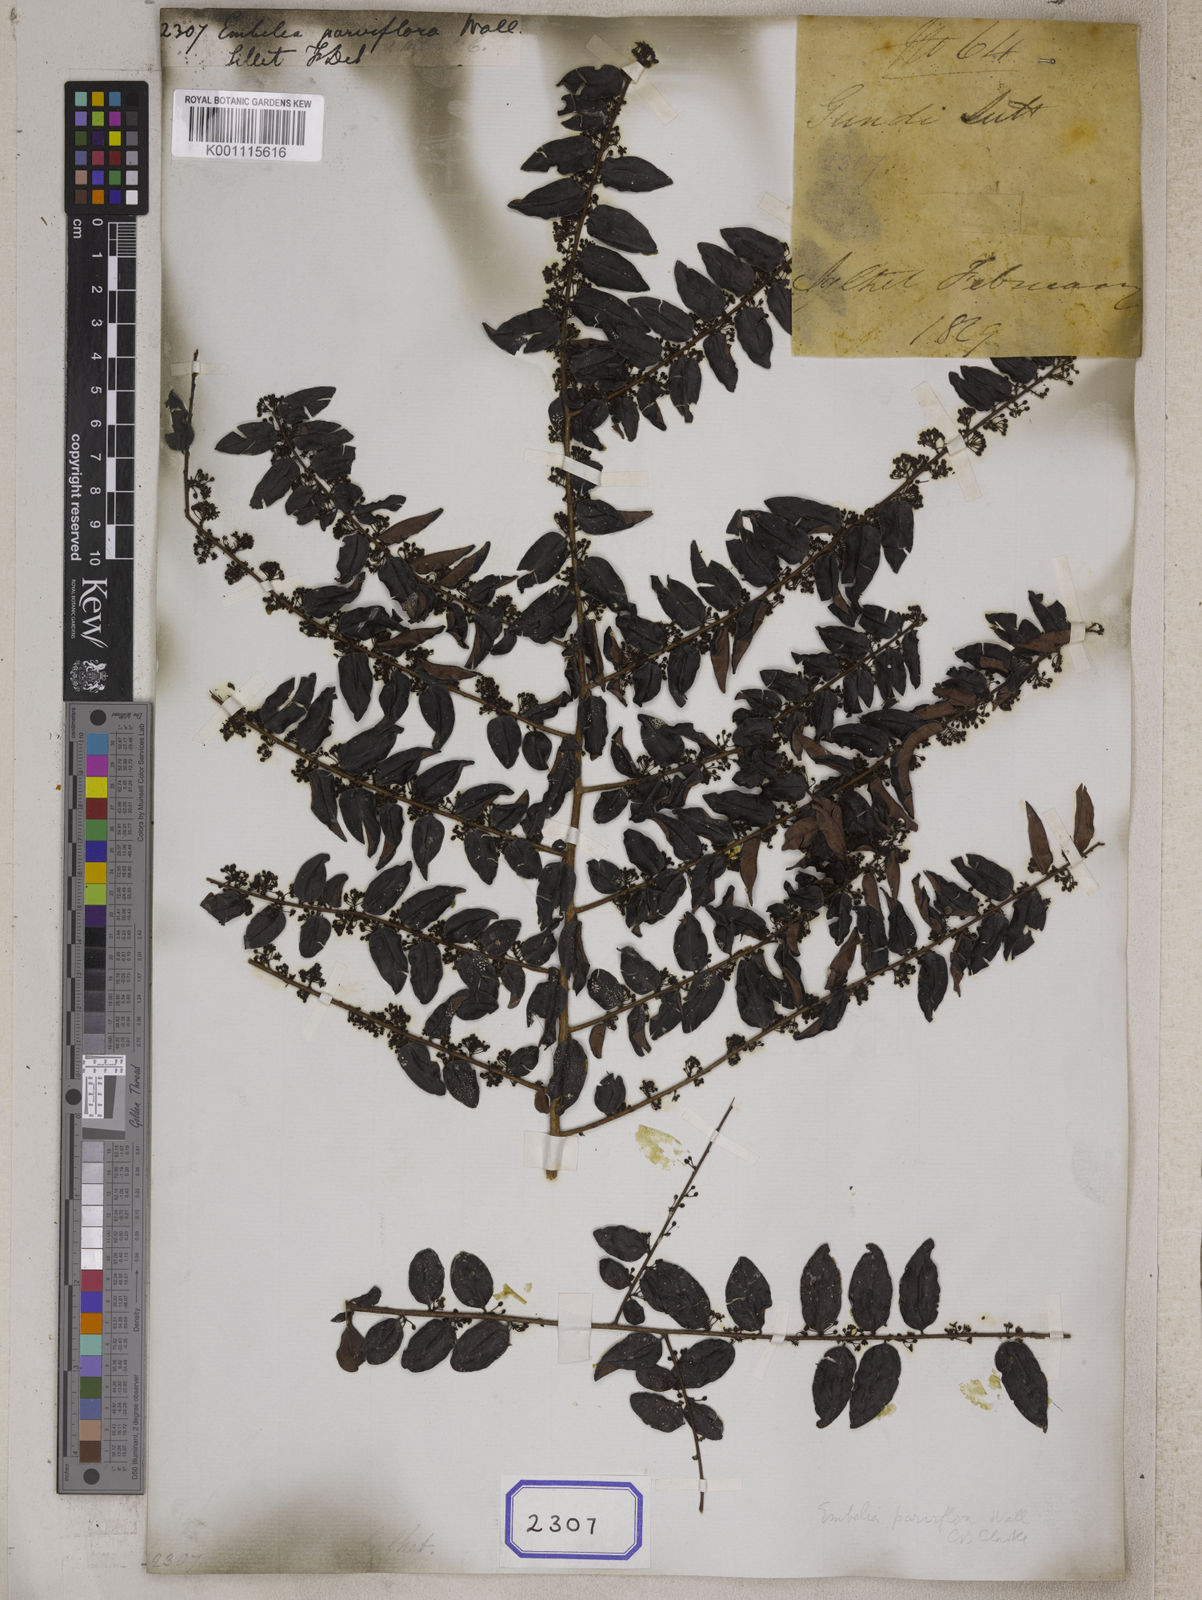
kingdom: Plantae
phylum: Tracheophyta
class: Magnoliopsida
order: Ericales
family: Primulaceae
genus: Embelia
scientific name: Embelia
